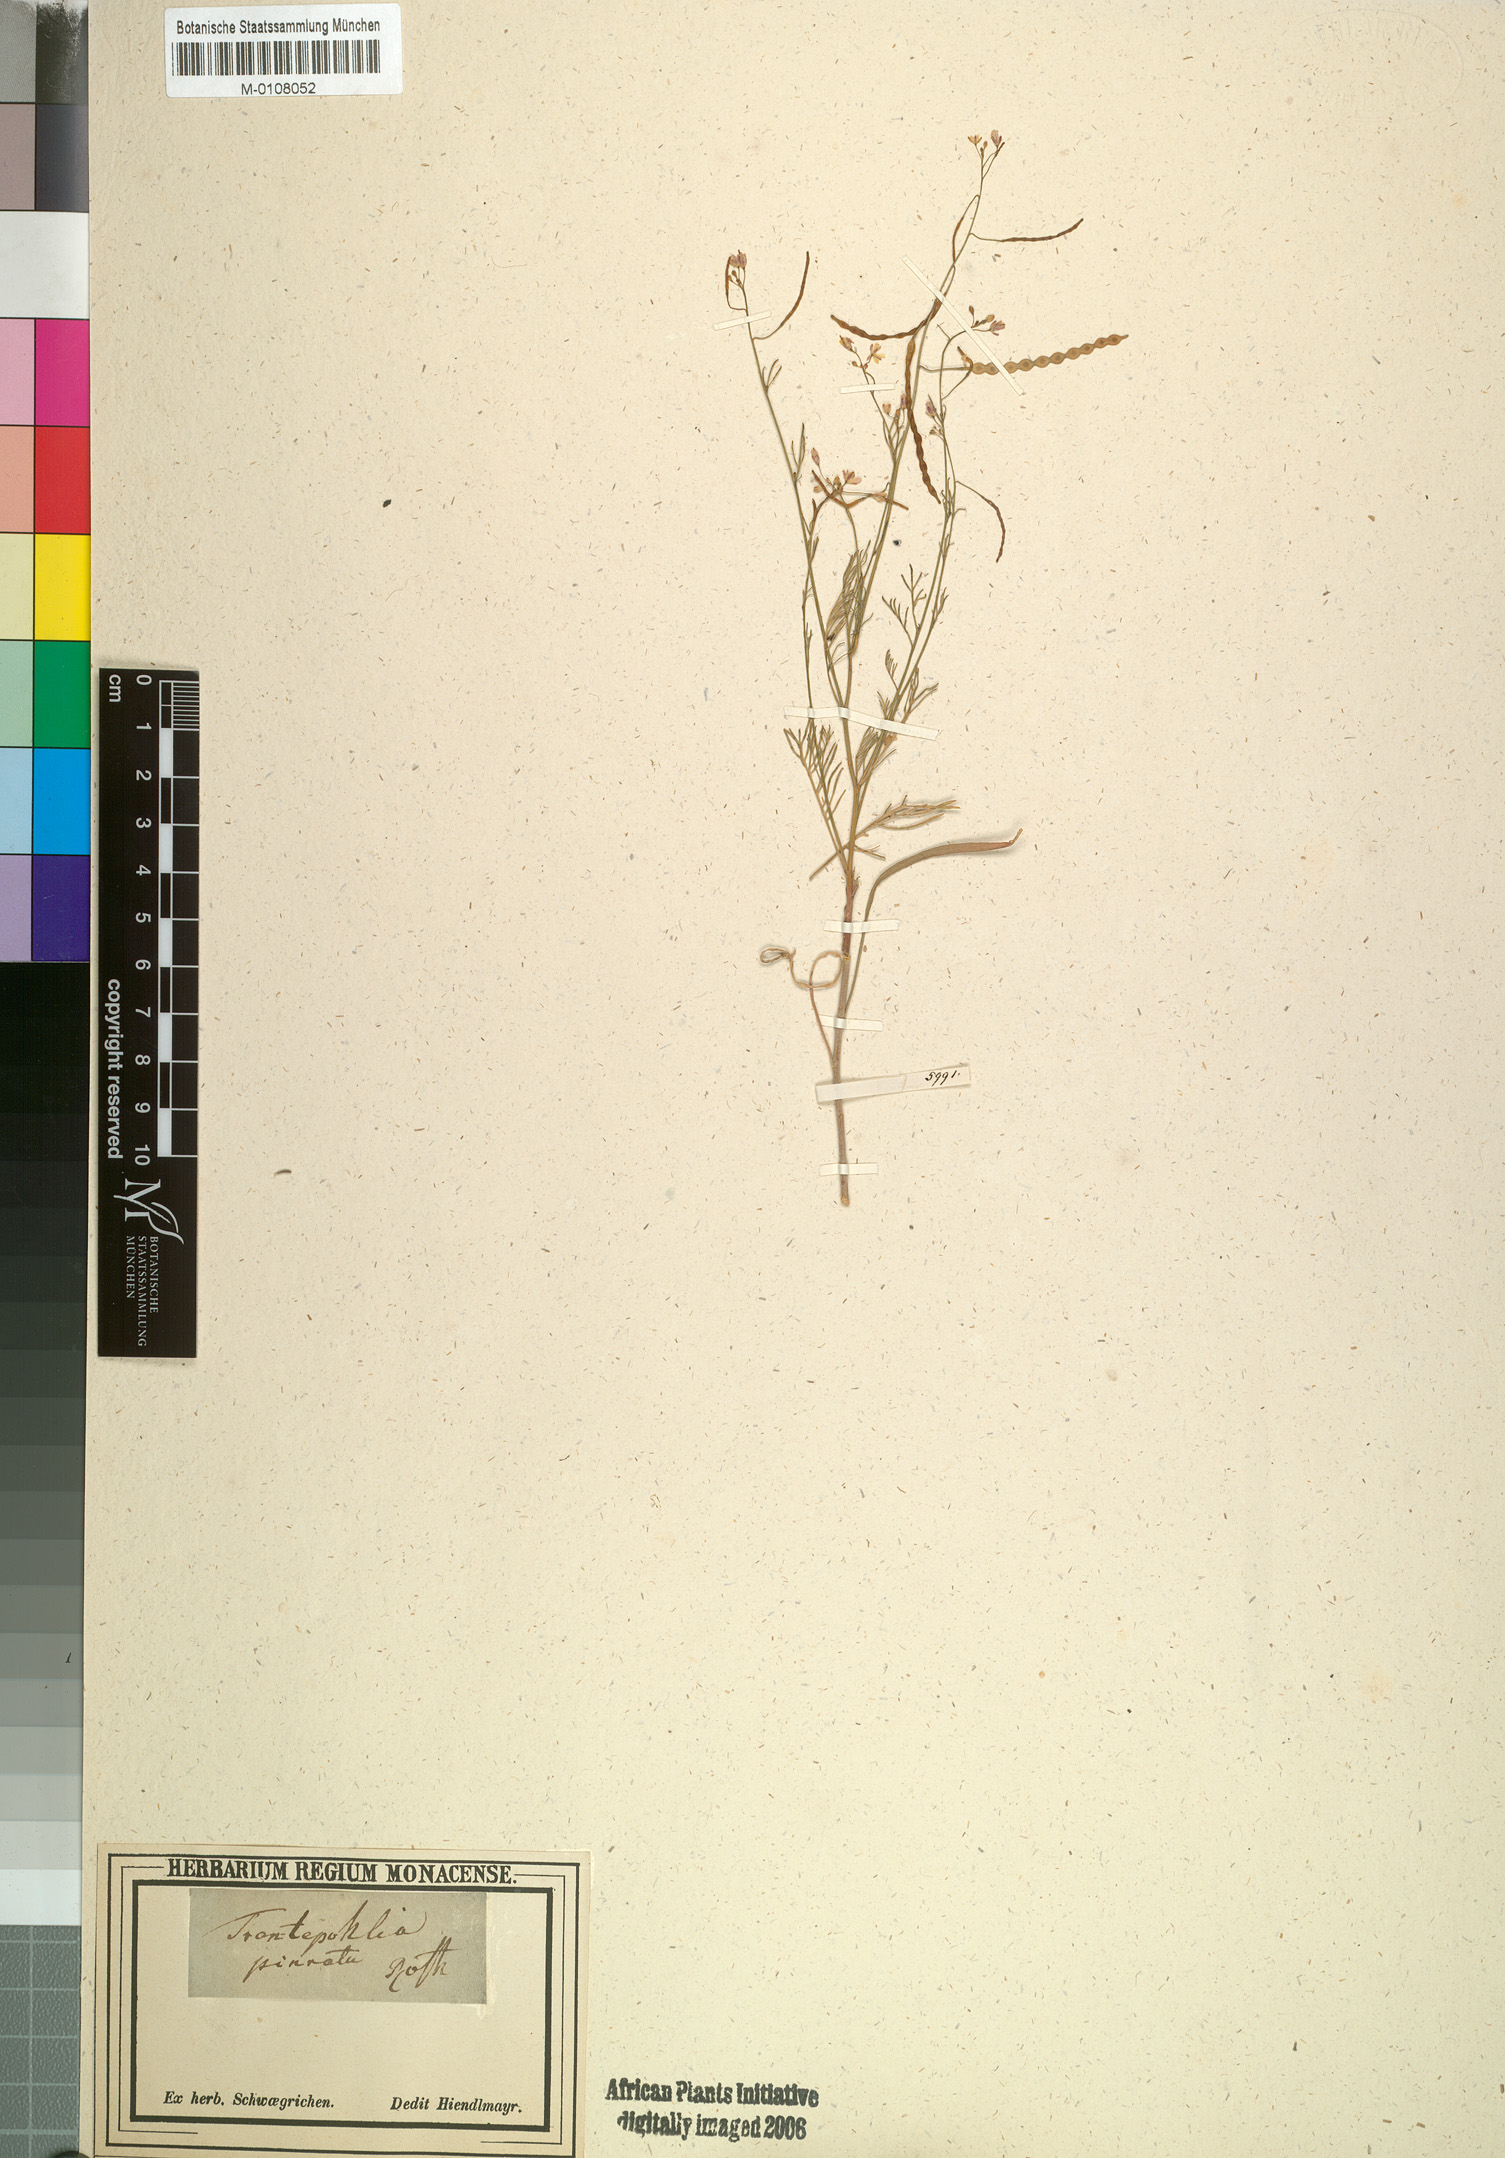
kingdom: Plantae
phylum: Tracheophyta
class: Magnoliopsida
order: Brassicales
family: Brassicaceae
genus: Heliophila
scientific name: Heliophila pendula
